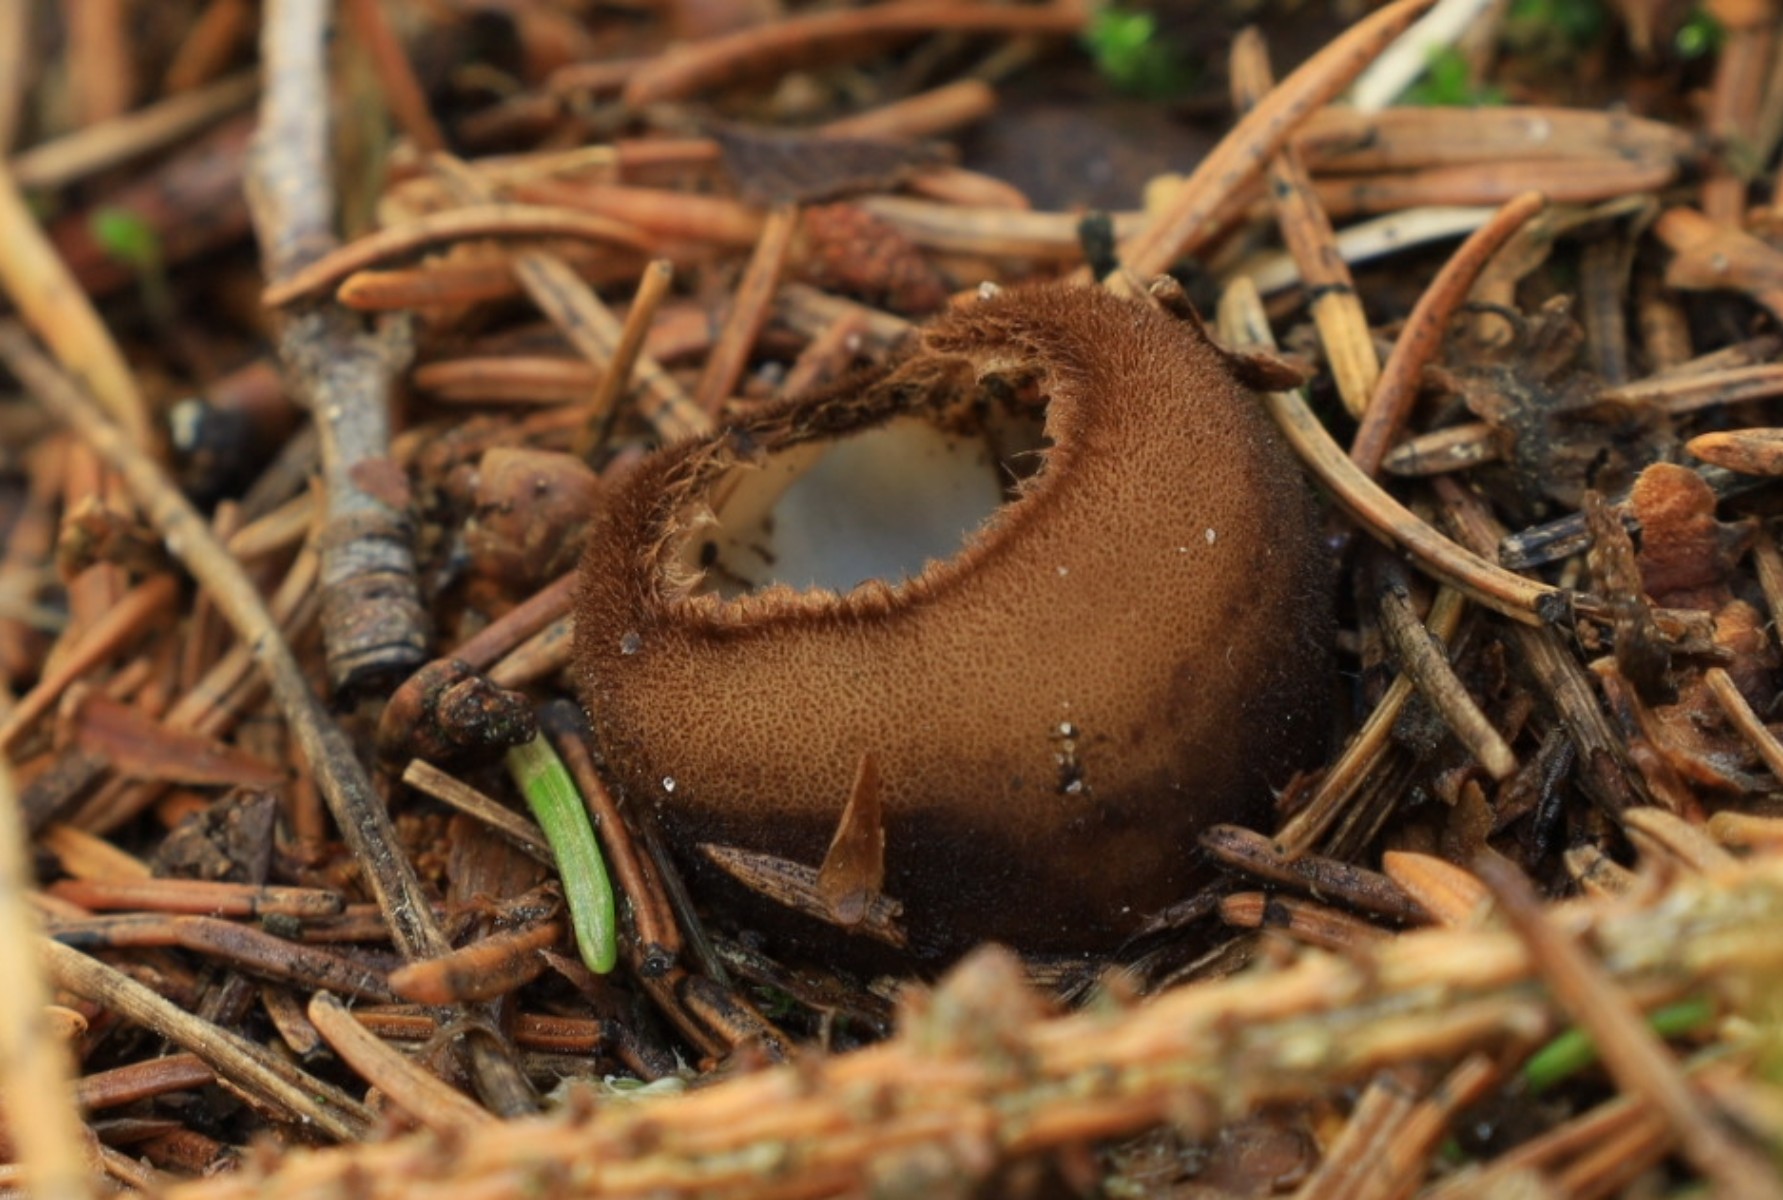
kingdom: Fungi
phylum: Ascomycota
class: Pezizomycetes
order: Pezizales
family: Pyronemataceae
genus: Humaria
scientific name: Humaria hemisphaerica
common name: halvkugleformet børstebæger
